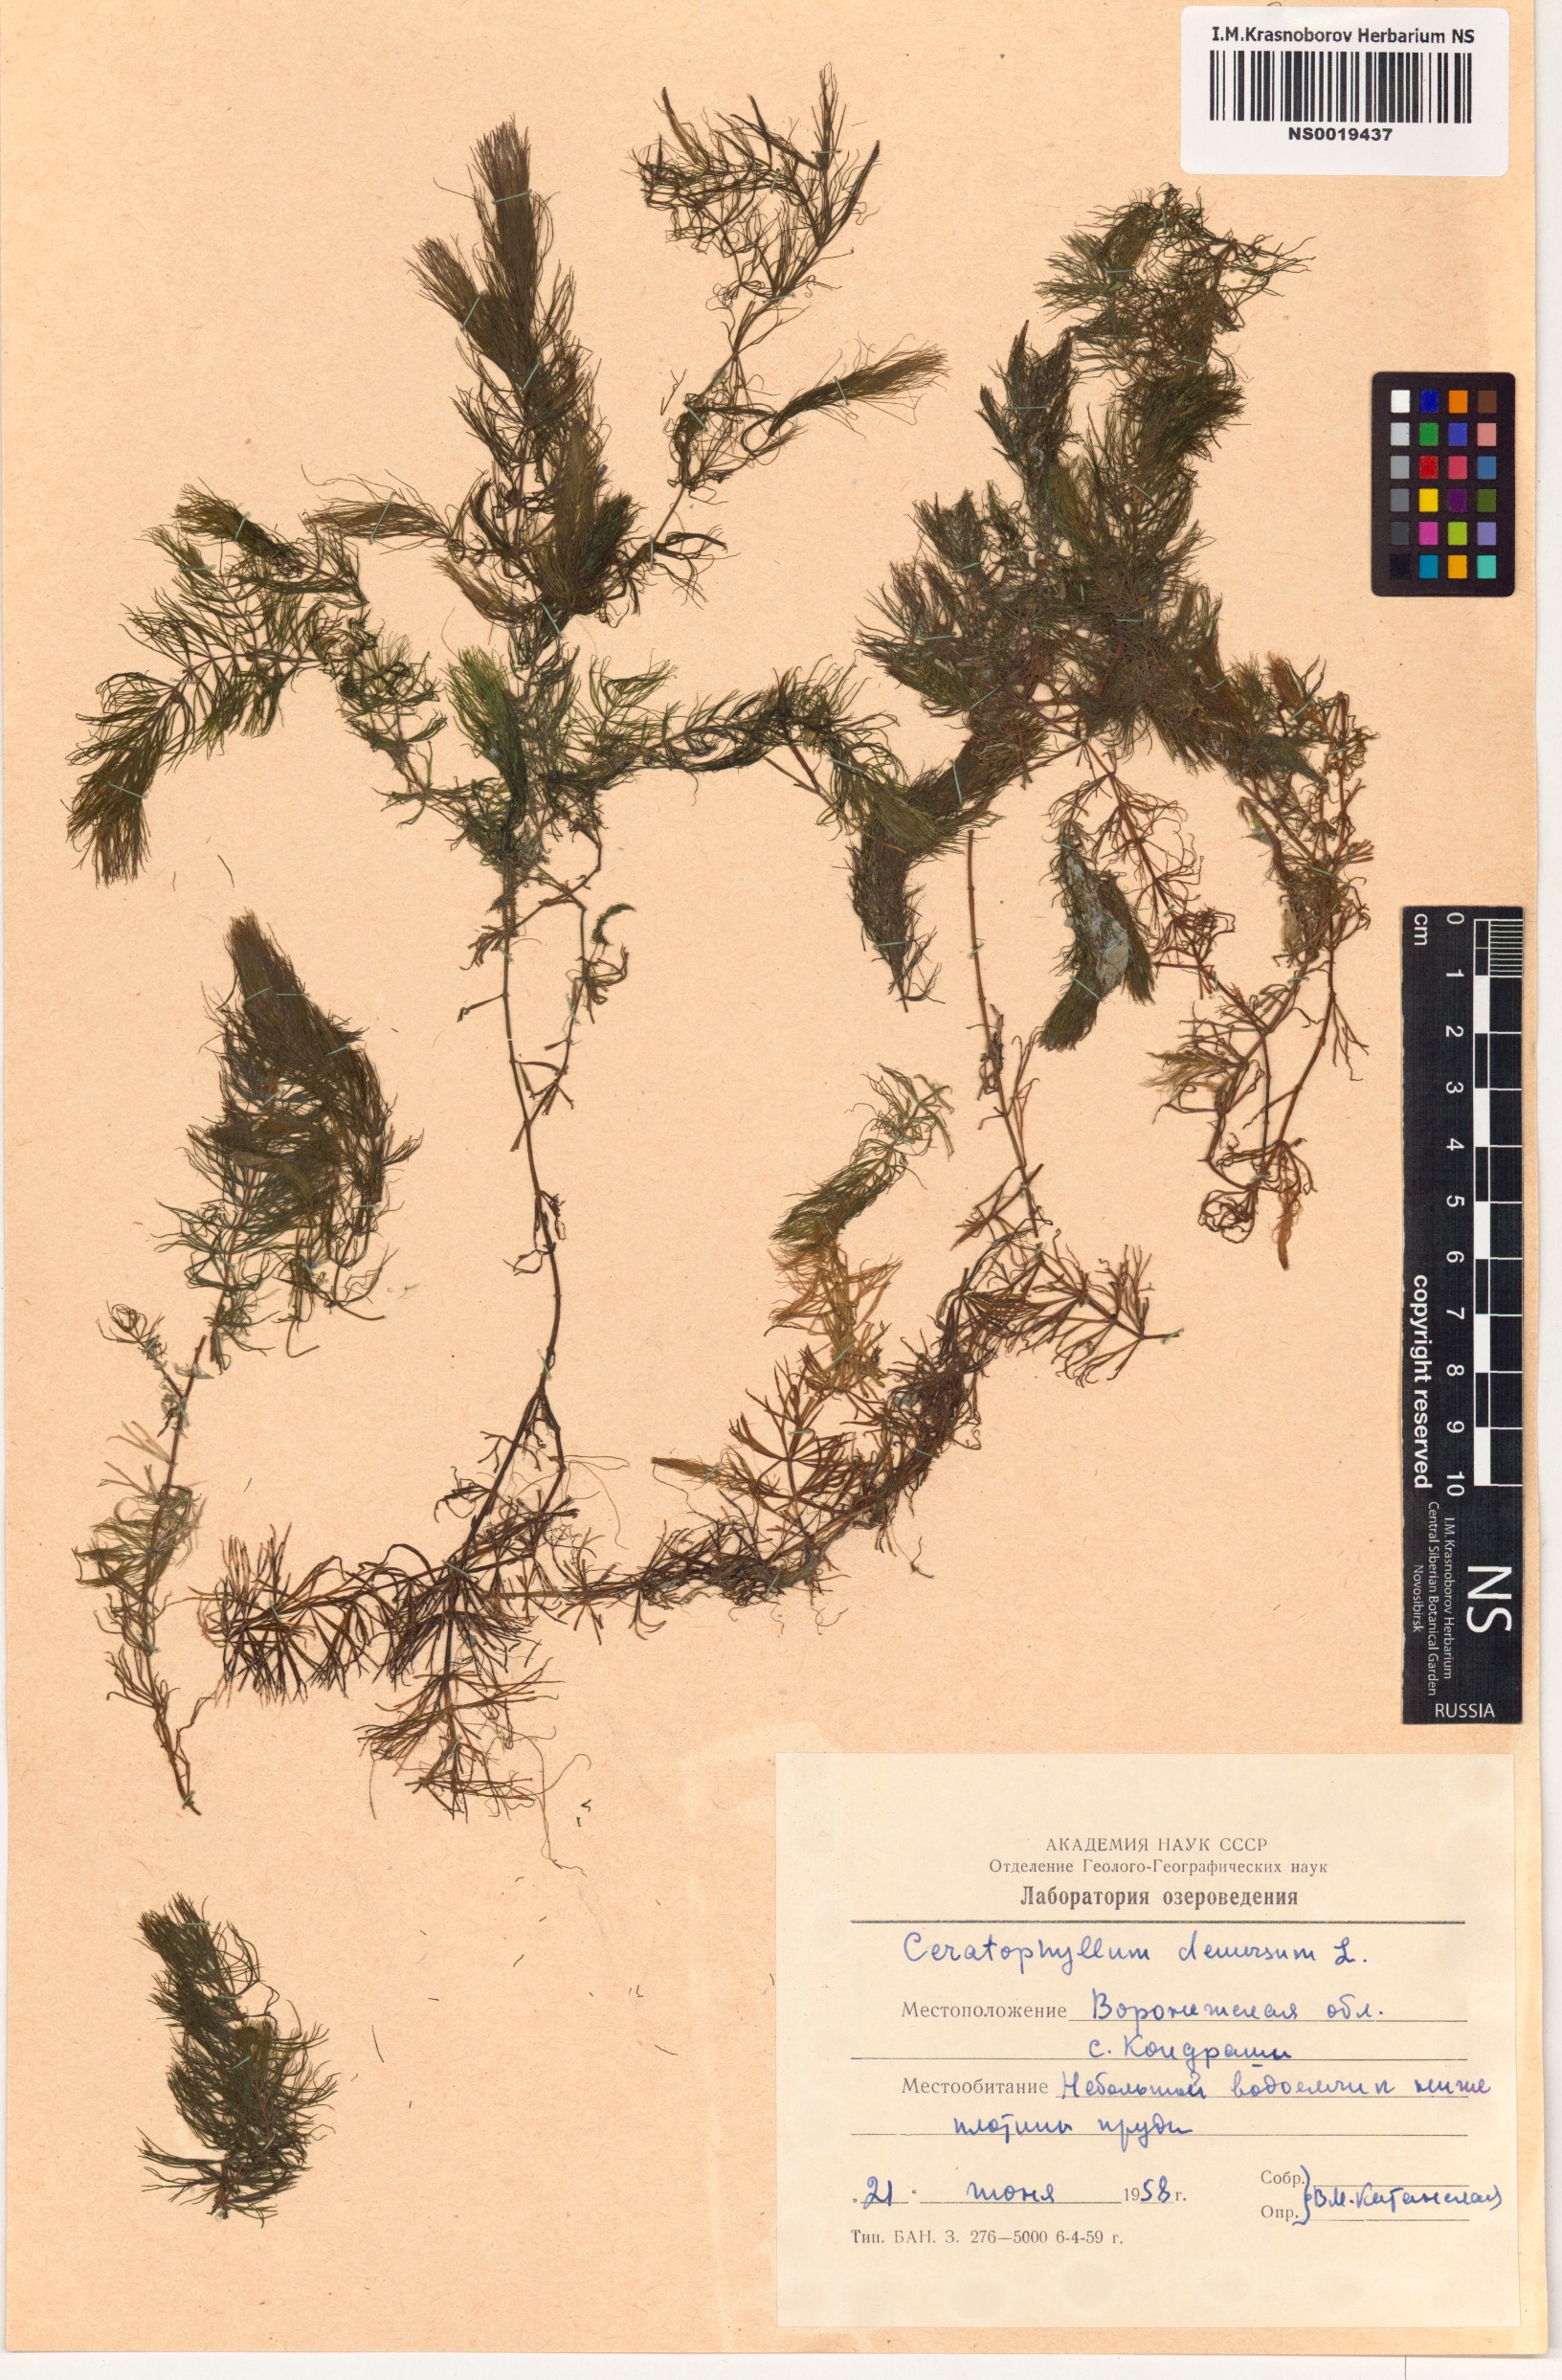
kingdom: Plantae
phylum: Tracheophyta
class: Magnoliopsida
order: Ceratophyllales
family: Ceratophyllaceae
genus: Ceratophyllum
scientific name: Ceratophyllum demersum
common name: Rigid hornwort
